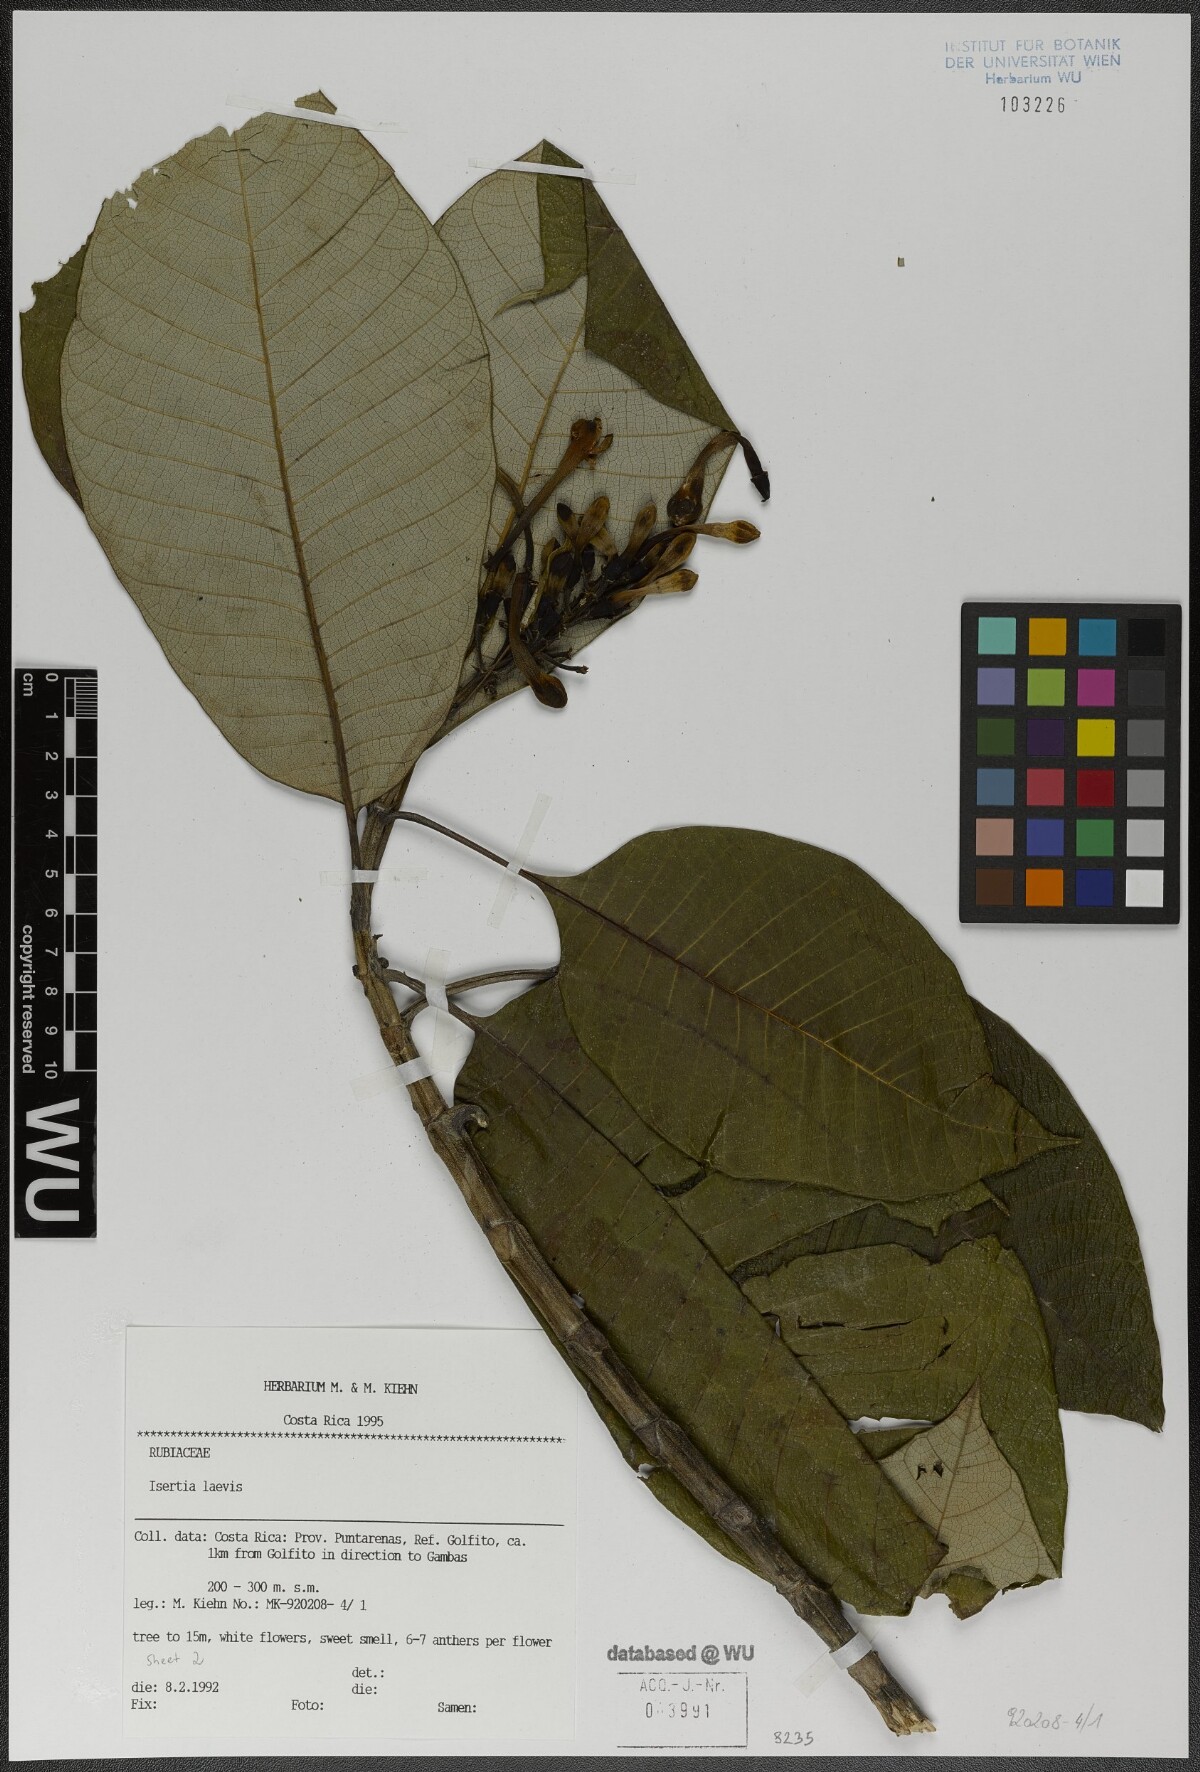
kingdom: Plantae
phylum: Tracheophyta
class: Magnoliopsida
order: Gentianales
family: Rubiaceae
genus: Isertia
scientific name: Isertia laevis
